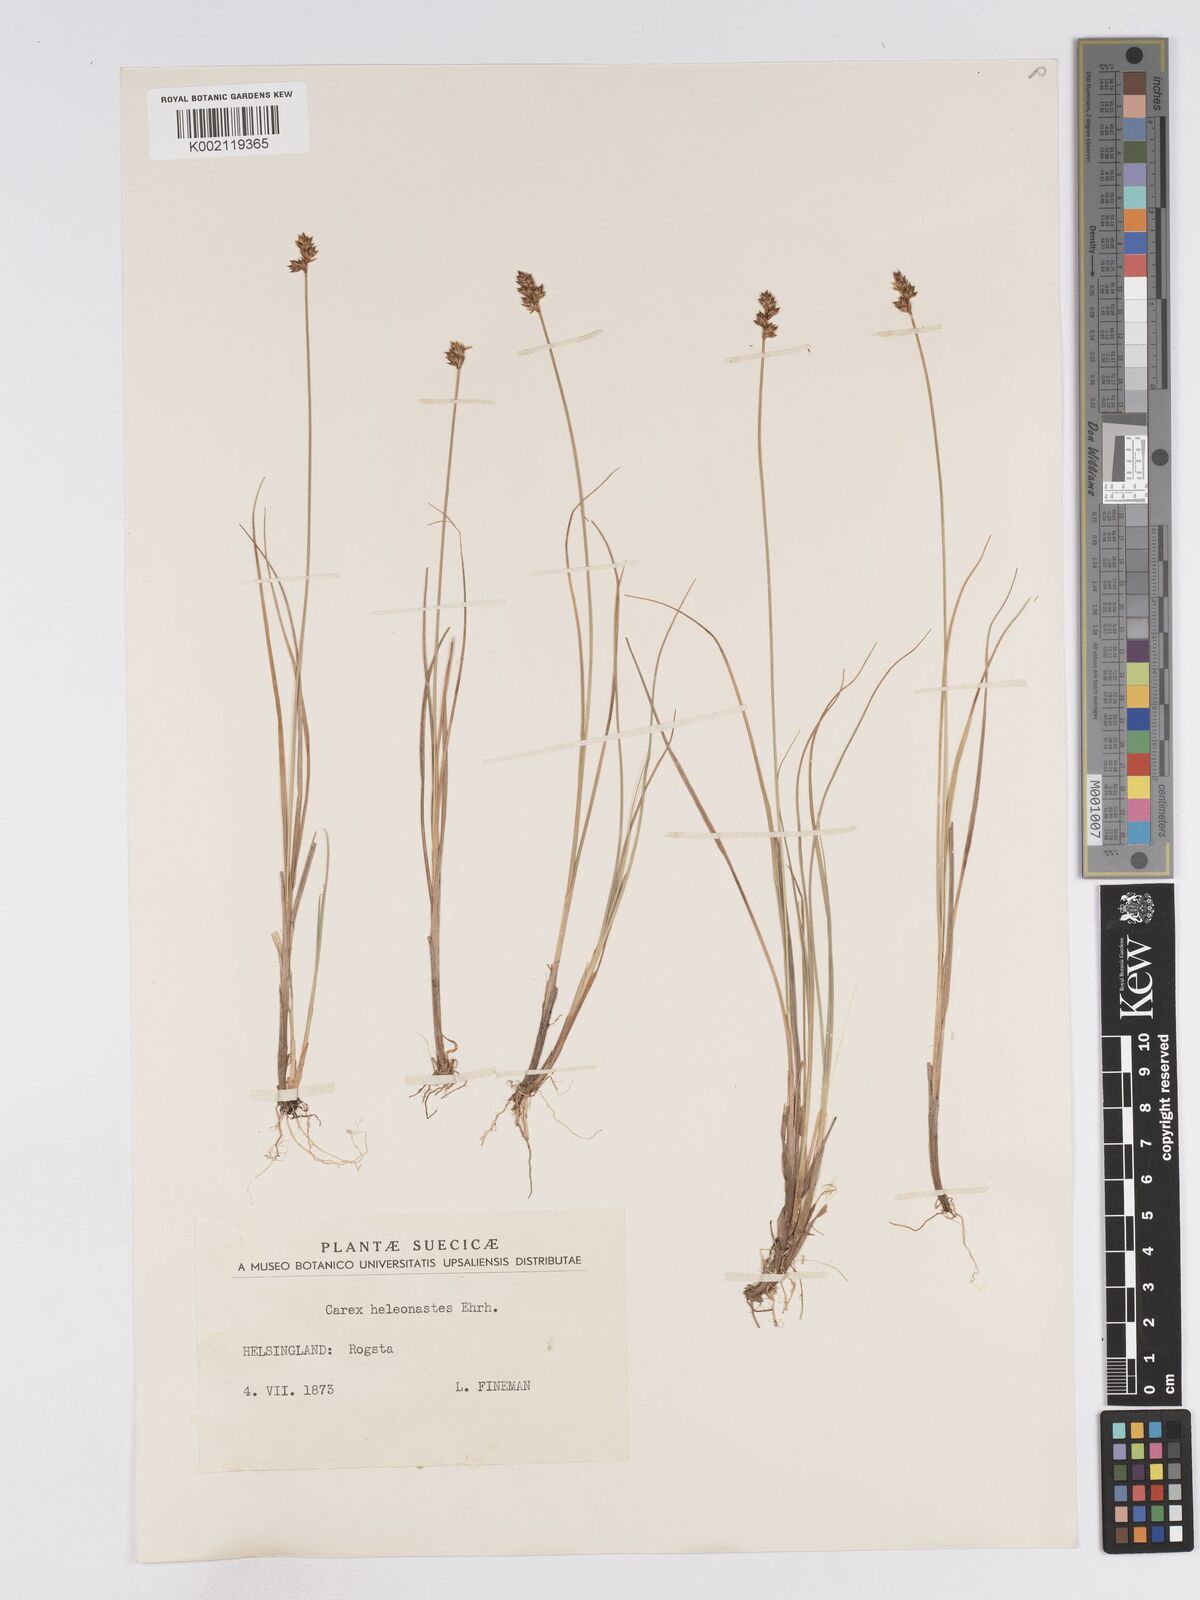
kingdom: Plantae
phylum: Tracheophyta
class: Liliopsida
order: Poales
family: Cyperaceae
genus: Carex
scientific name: Carex heleonastes
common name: Hudson bay sedge
